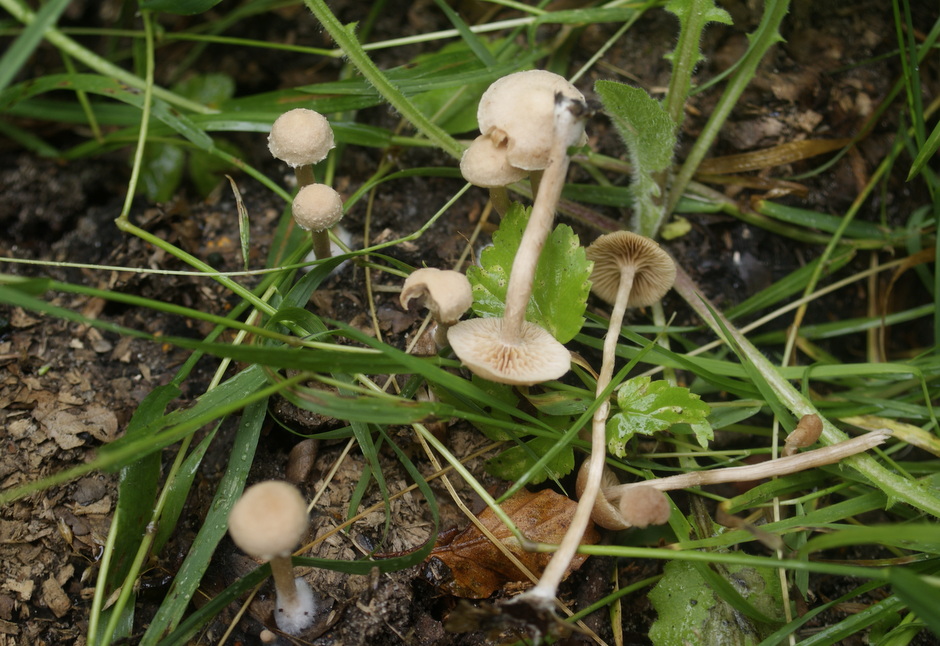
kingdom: Fungi
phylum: Basidiomycota
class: Agaricomycetes
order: Agaricales
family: Tubariaceae
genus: Tubaria
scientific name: Tubaria conspersa
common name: bleg fnughat
